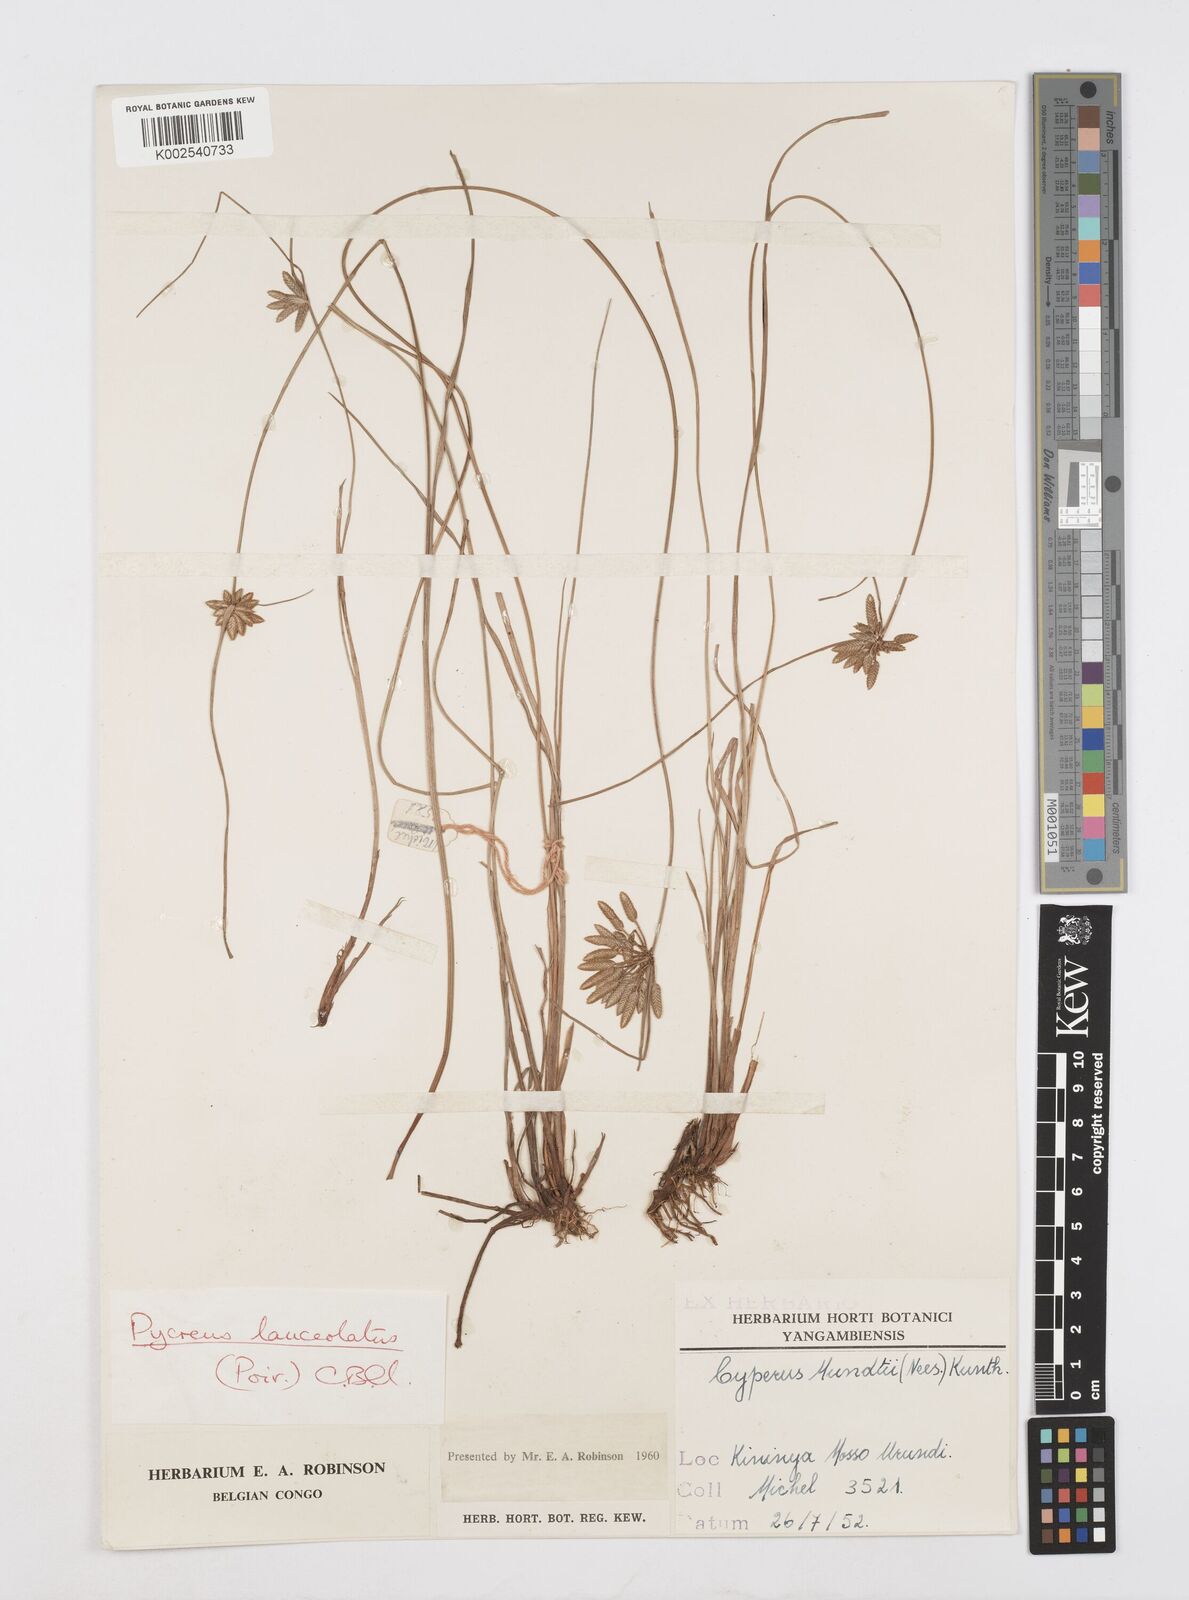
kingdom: Plantae
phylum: Tracheophyta
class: Liliopsida
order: Poales
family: Cyperaceae
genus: Cyperus
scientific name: Cyperus
